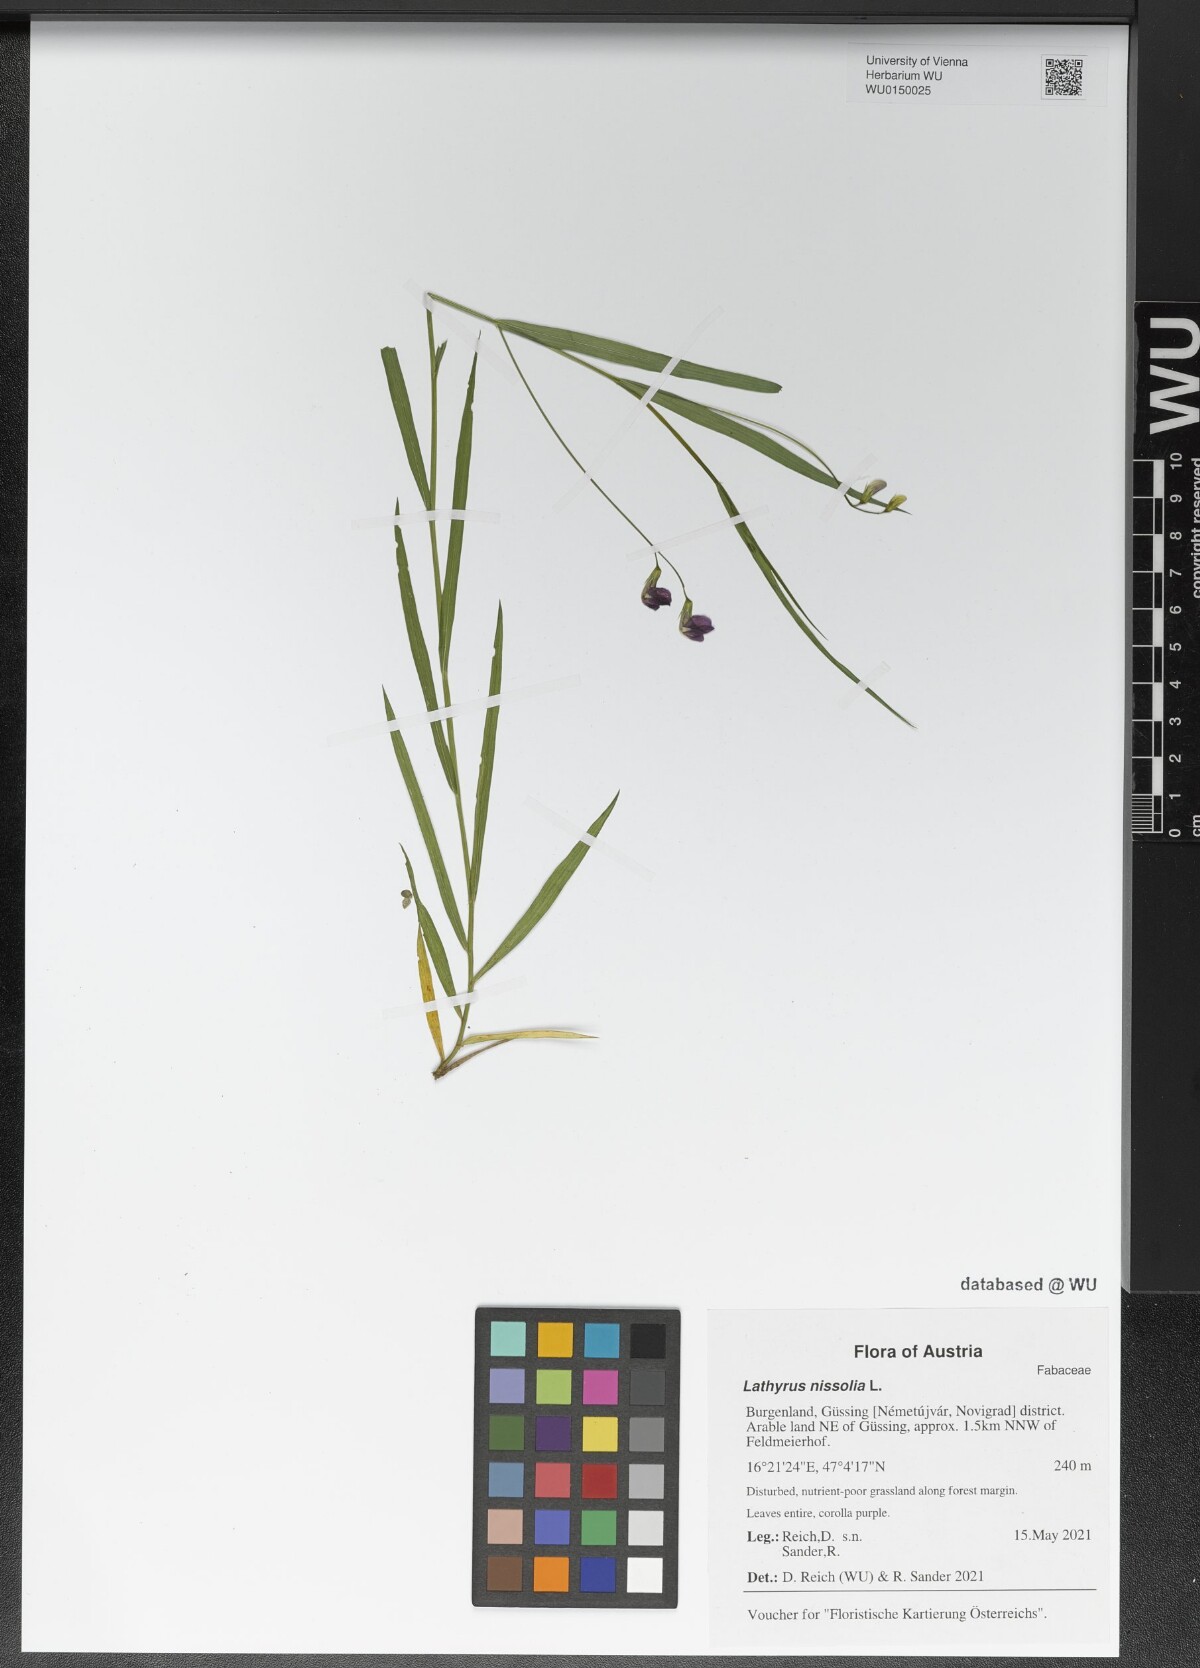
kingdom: Plantae
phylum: Tracheophyta
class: Magnoliopsida
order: Fabales
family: Fabaceae
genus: Lathyrus
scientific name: Lathyrus nissolia
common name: Grass vetchling
